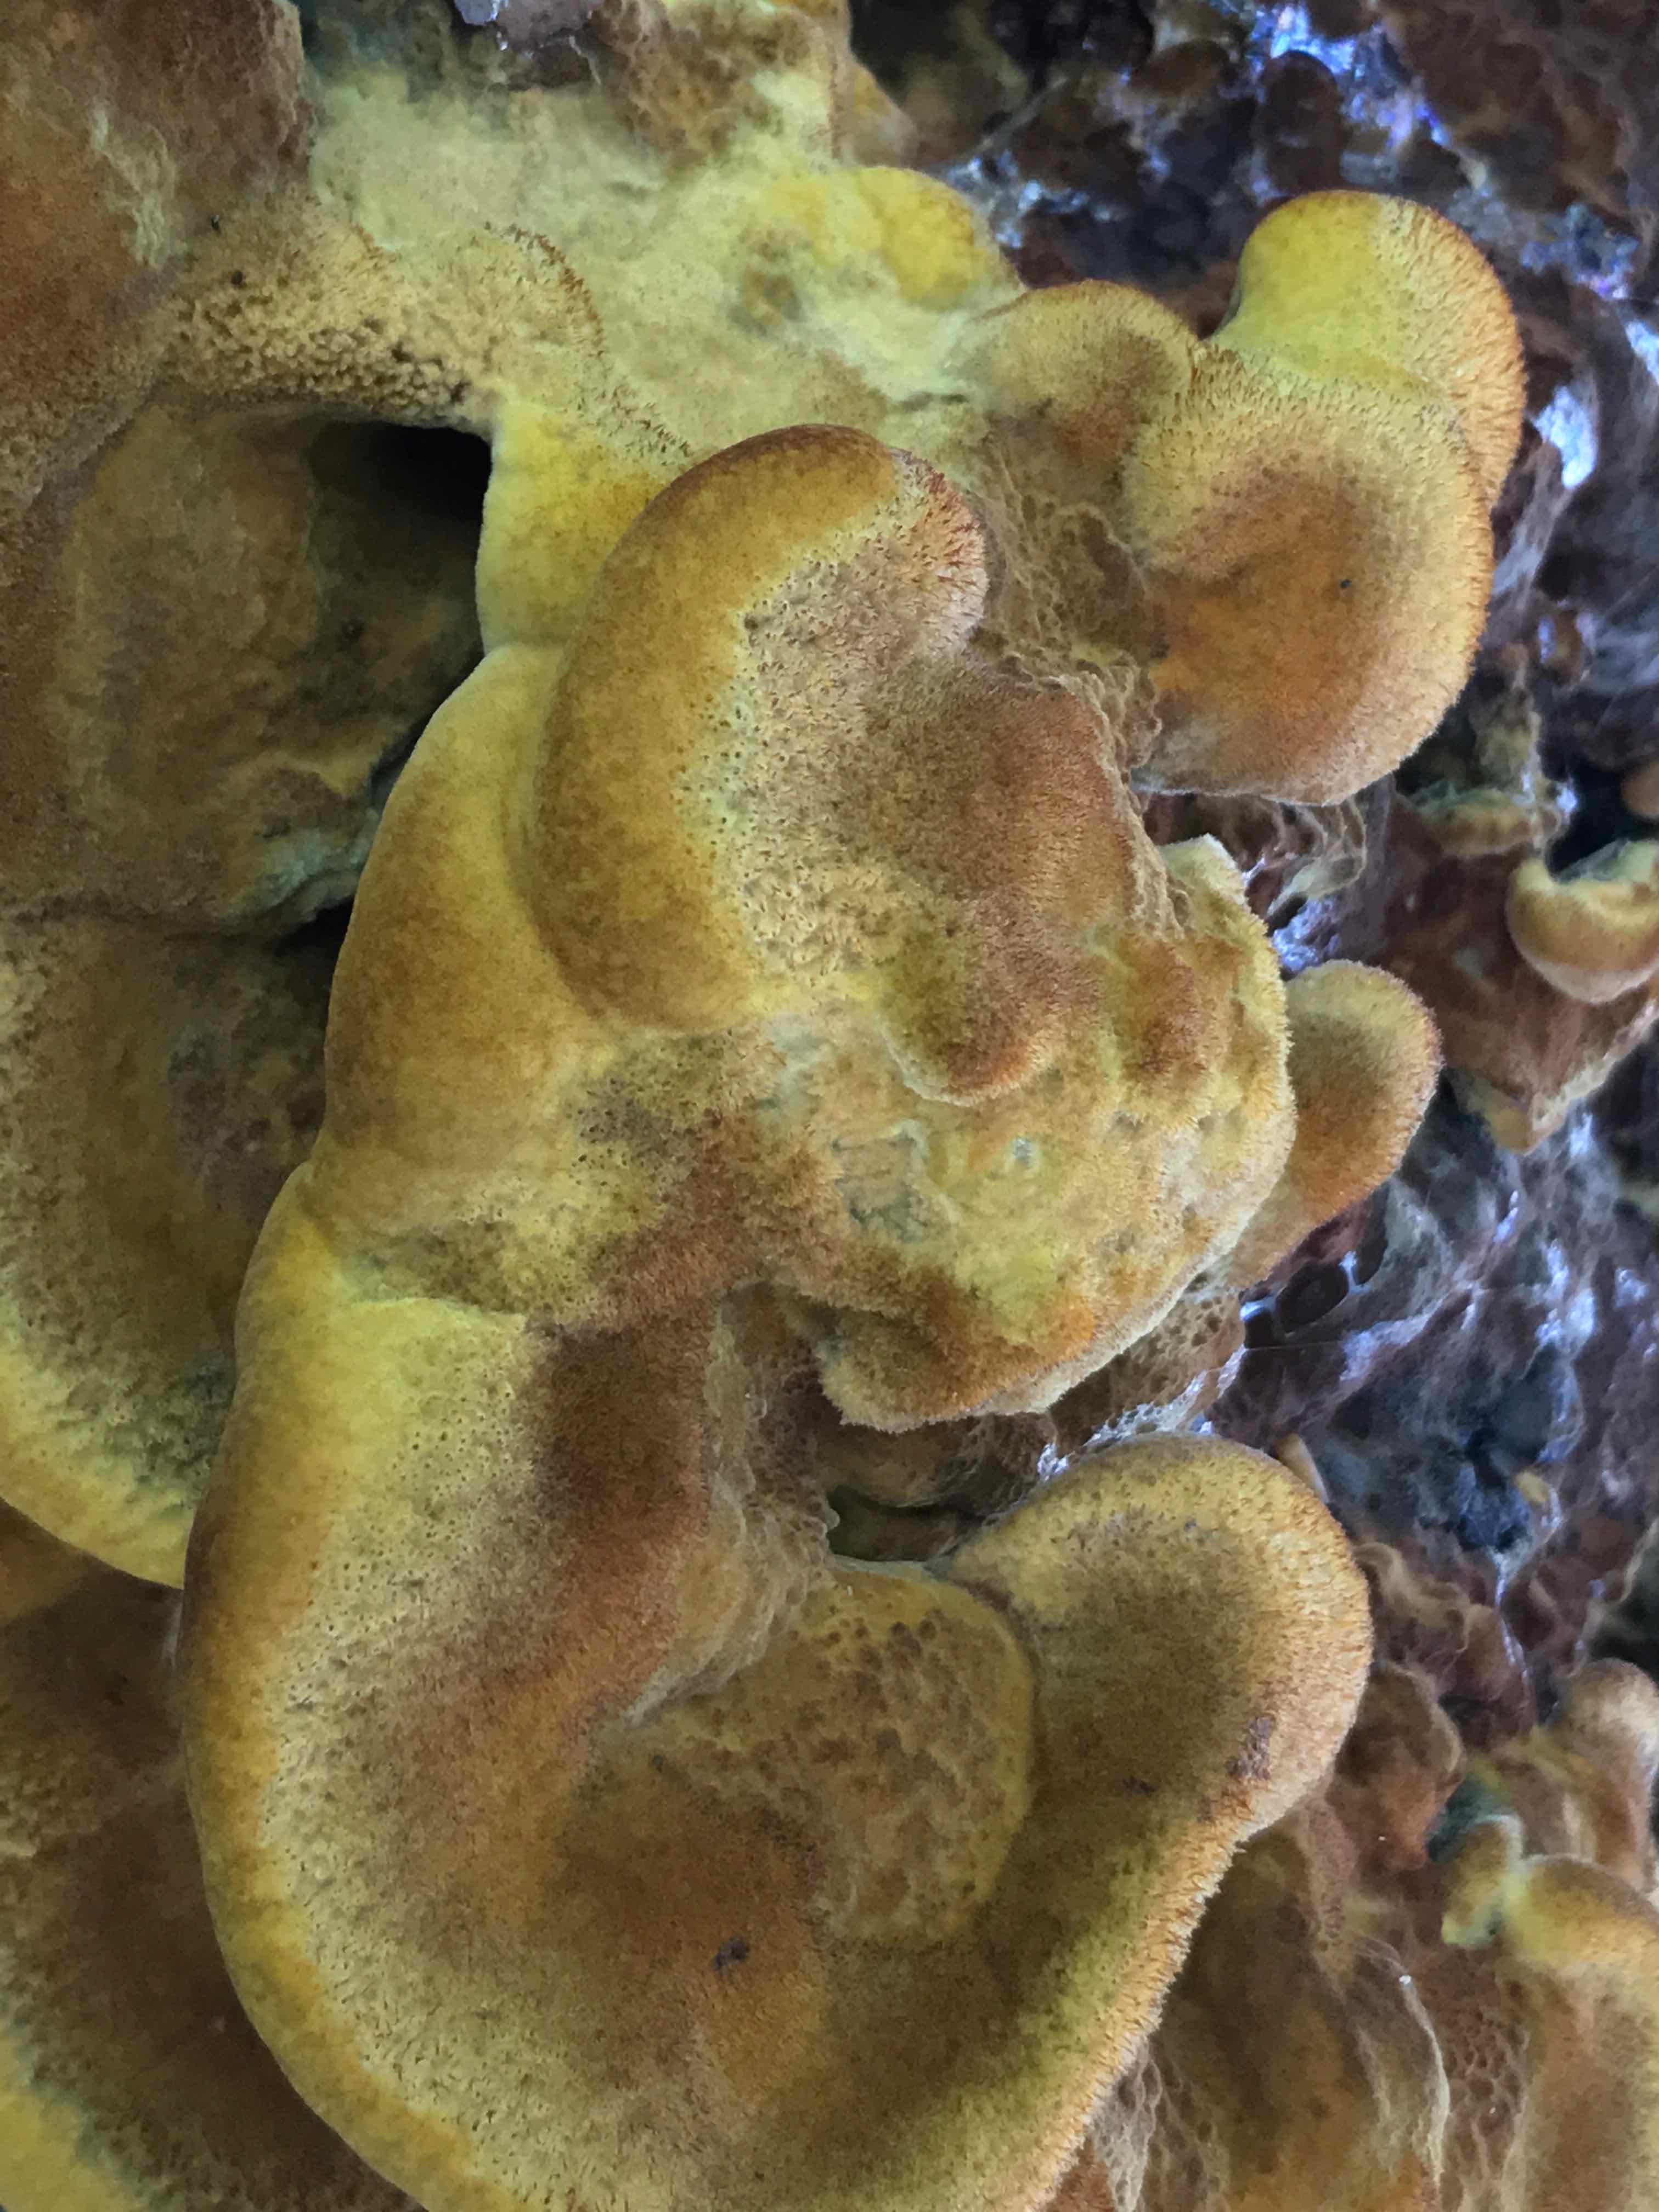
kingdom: Fungi
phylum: Basidiomycota
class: Agaricomycetes
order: Polyporales
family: Laetiporaceae
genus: Phaeolus
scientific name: Phaeolus schweinitzii
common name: brunporesvamp
